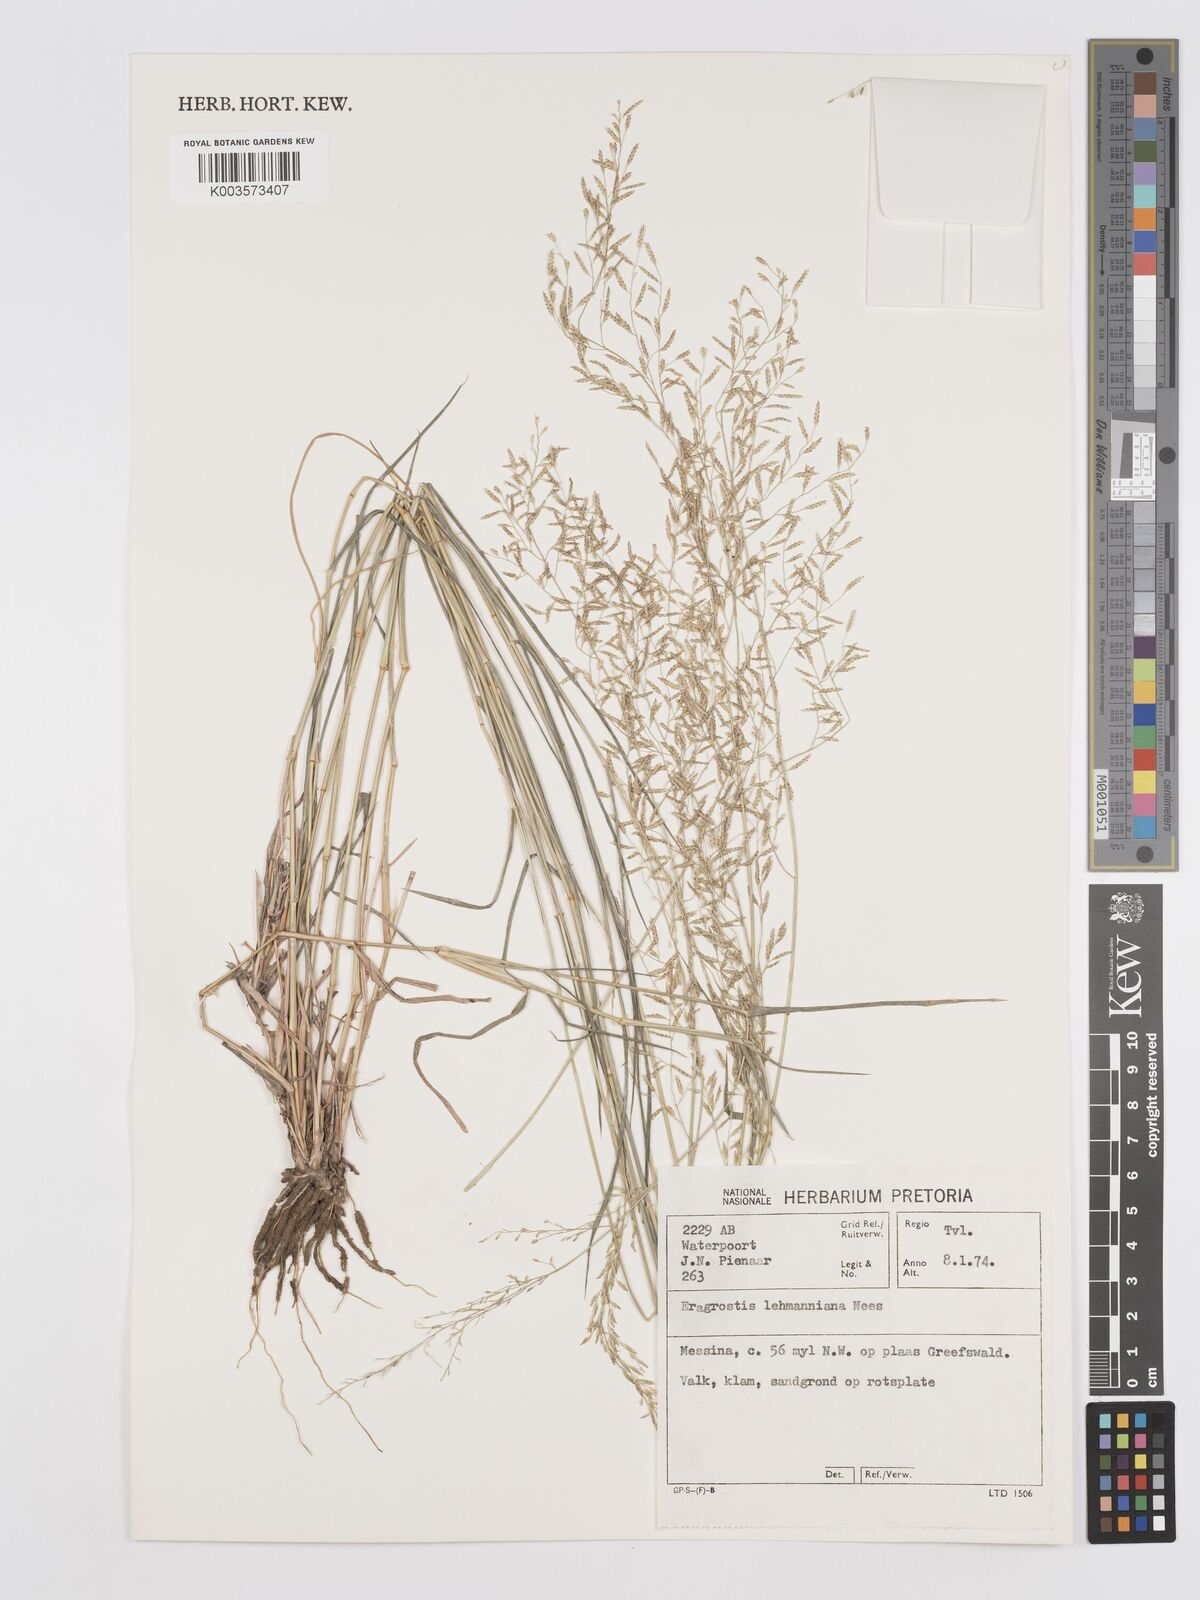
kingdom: Plantae
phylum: Tracheophyta
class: Liliopsida
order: Poales
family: Poaceae
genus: Eragrostis
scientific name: Eragrostis lehmanniana
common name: Lehmann lovegrass
